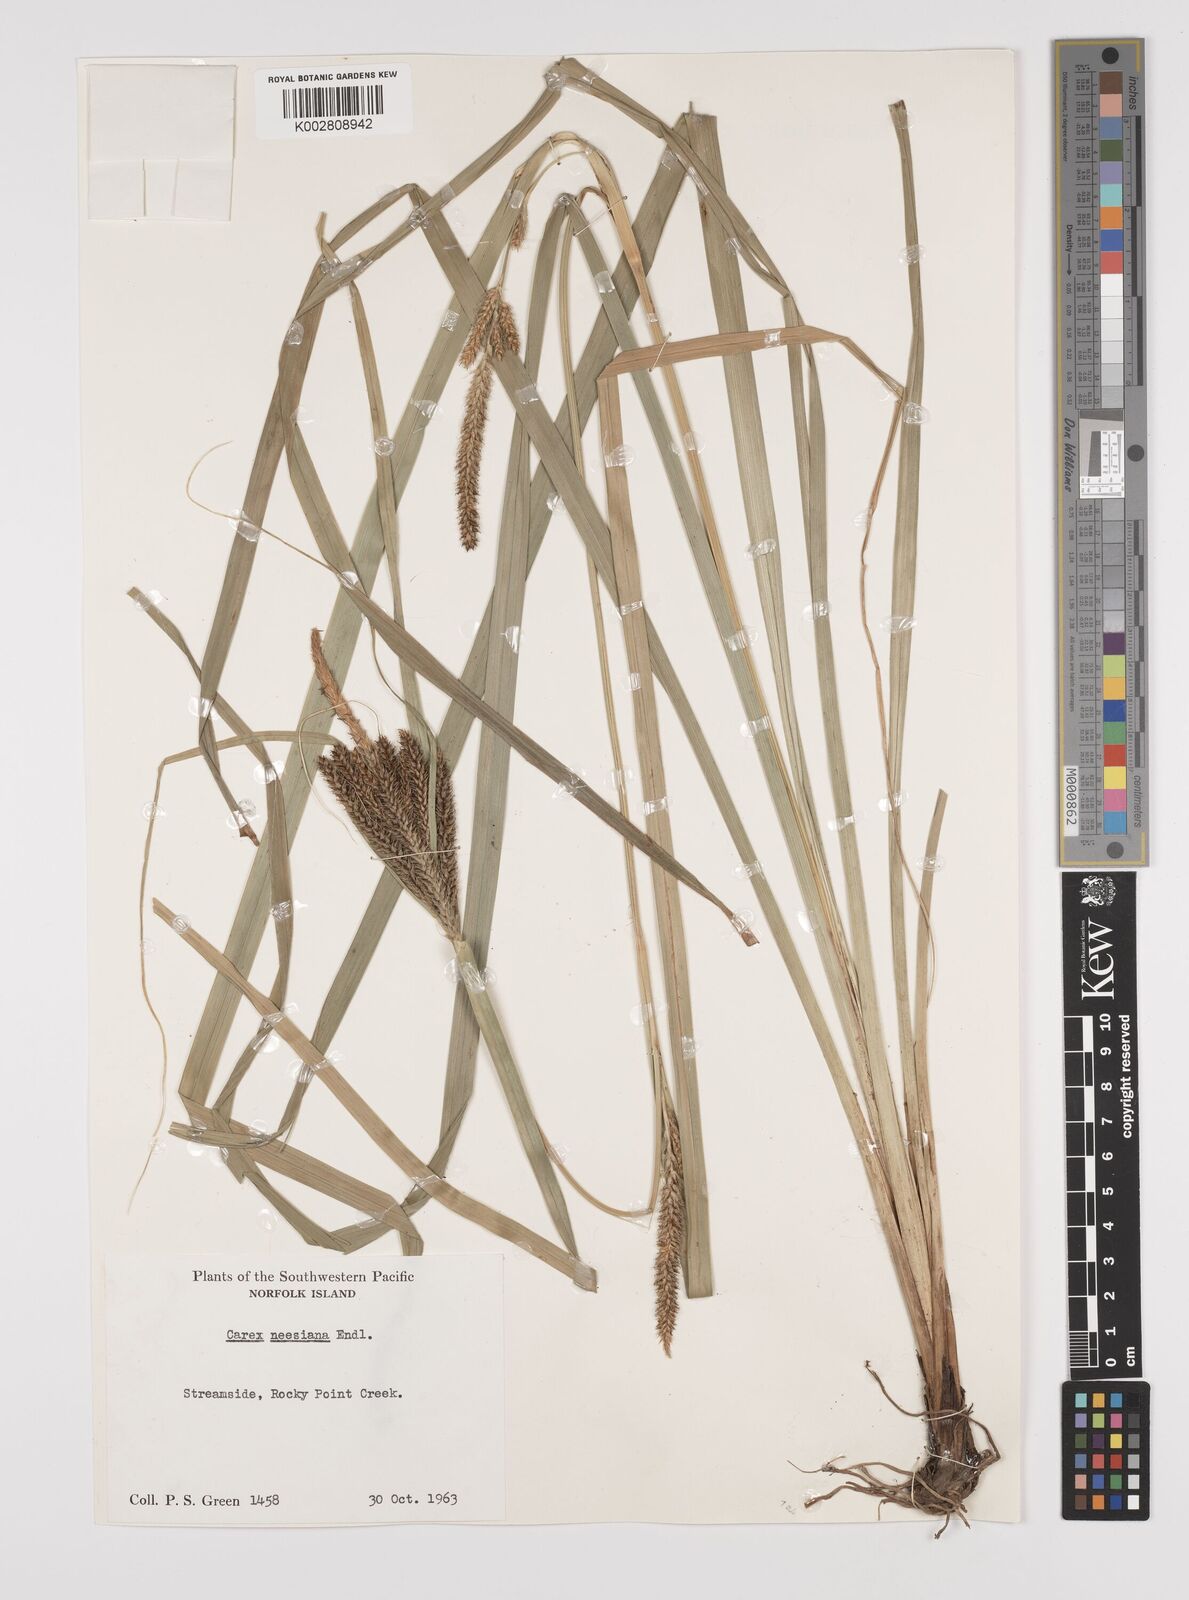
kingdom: Plantae
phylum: Tracheophyta
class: Liliopsida
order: Poales
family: Cyperaceae
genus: Carex
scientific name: Carex neesiana
